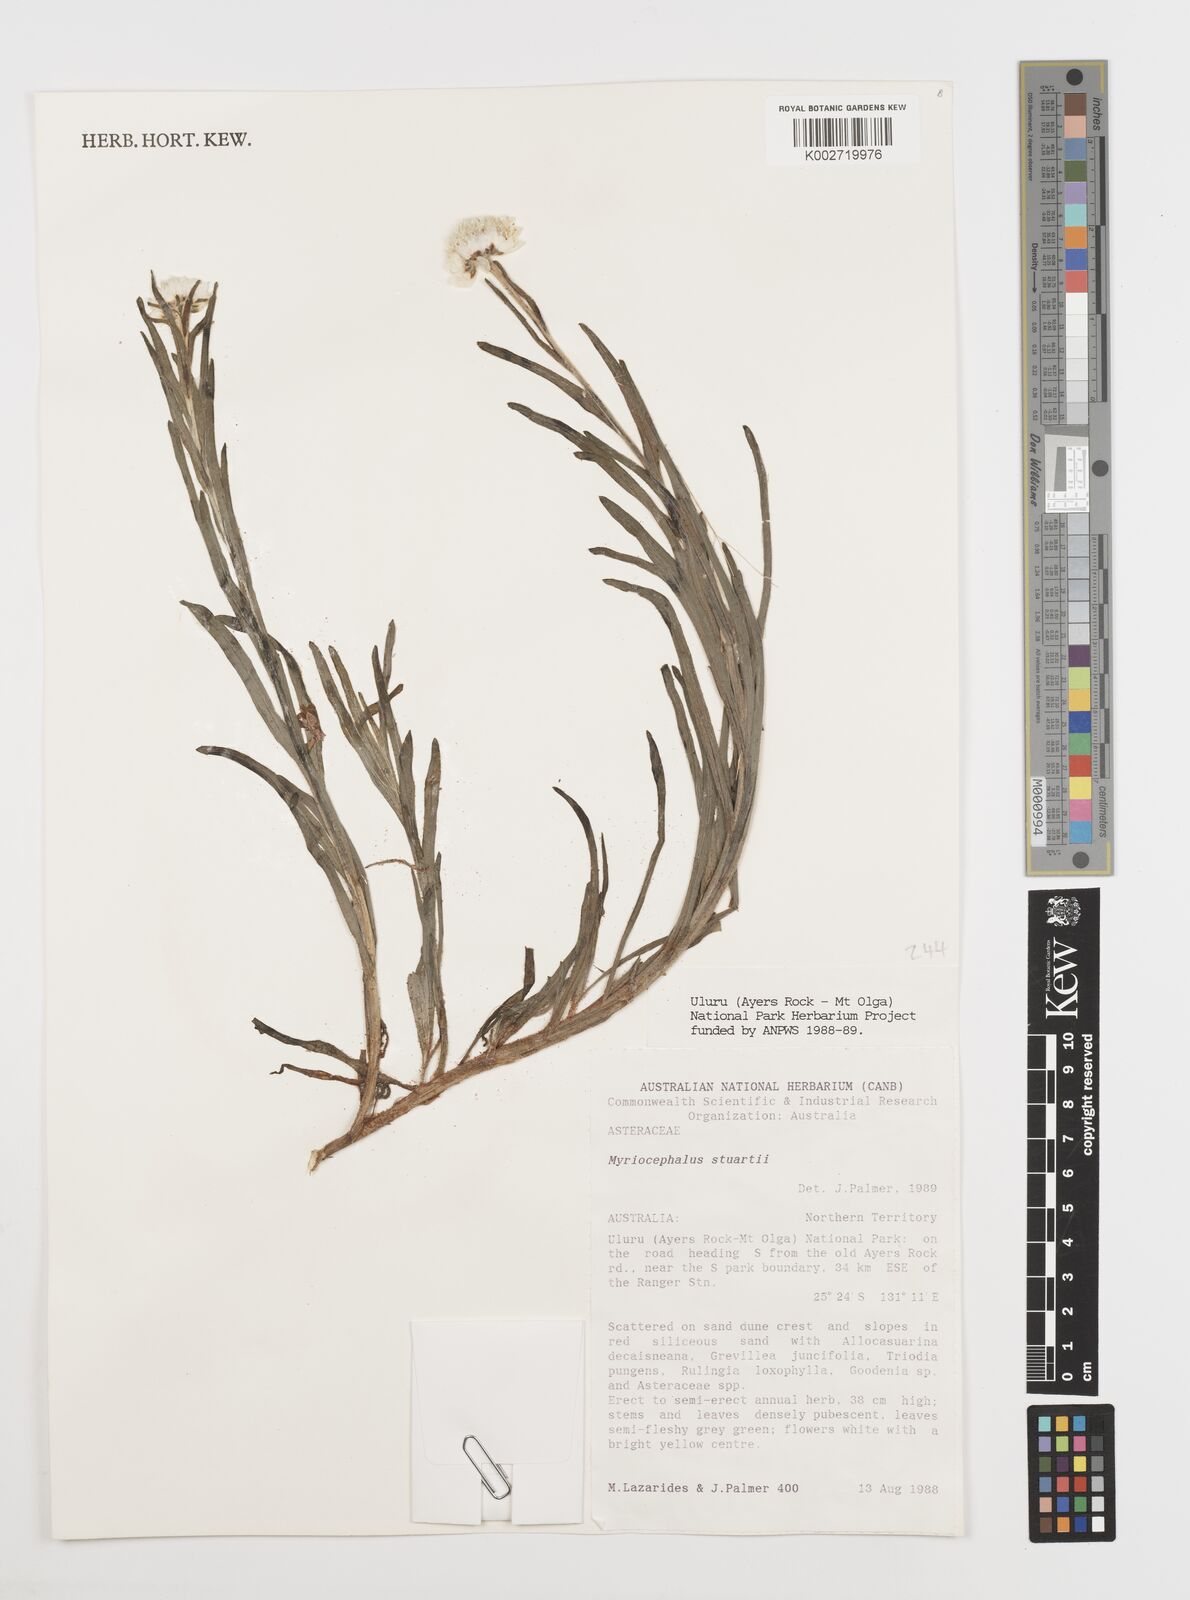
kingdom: Plantae
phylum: Tracheophyta
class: Magnoliopsida
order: Asterales
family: Asteraceae
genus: Polycalymma
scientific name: Polycalymma stuartii
